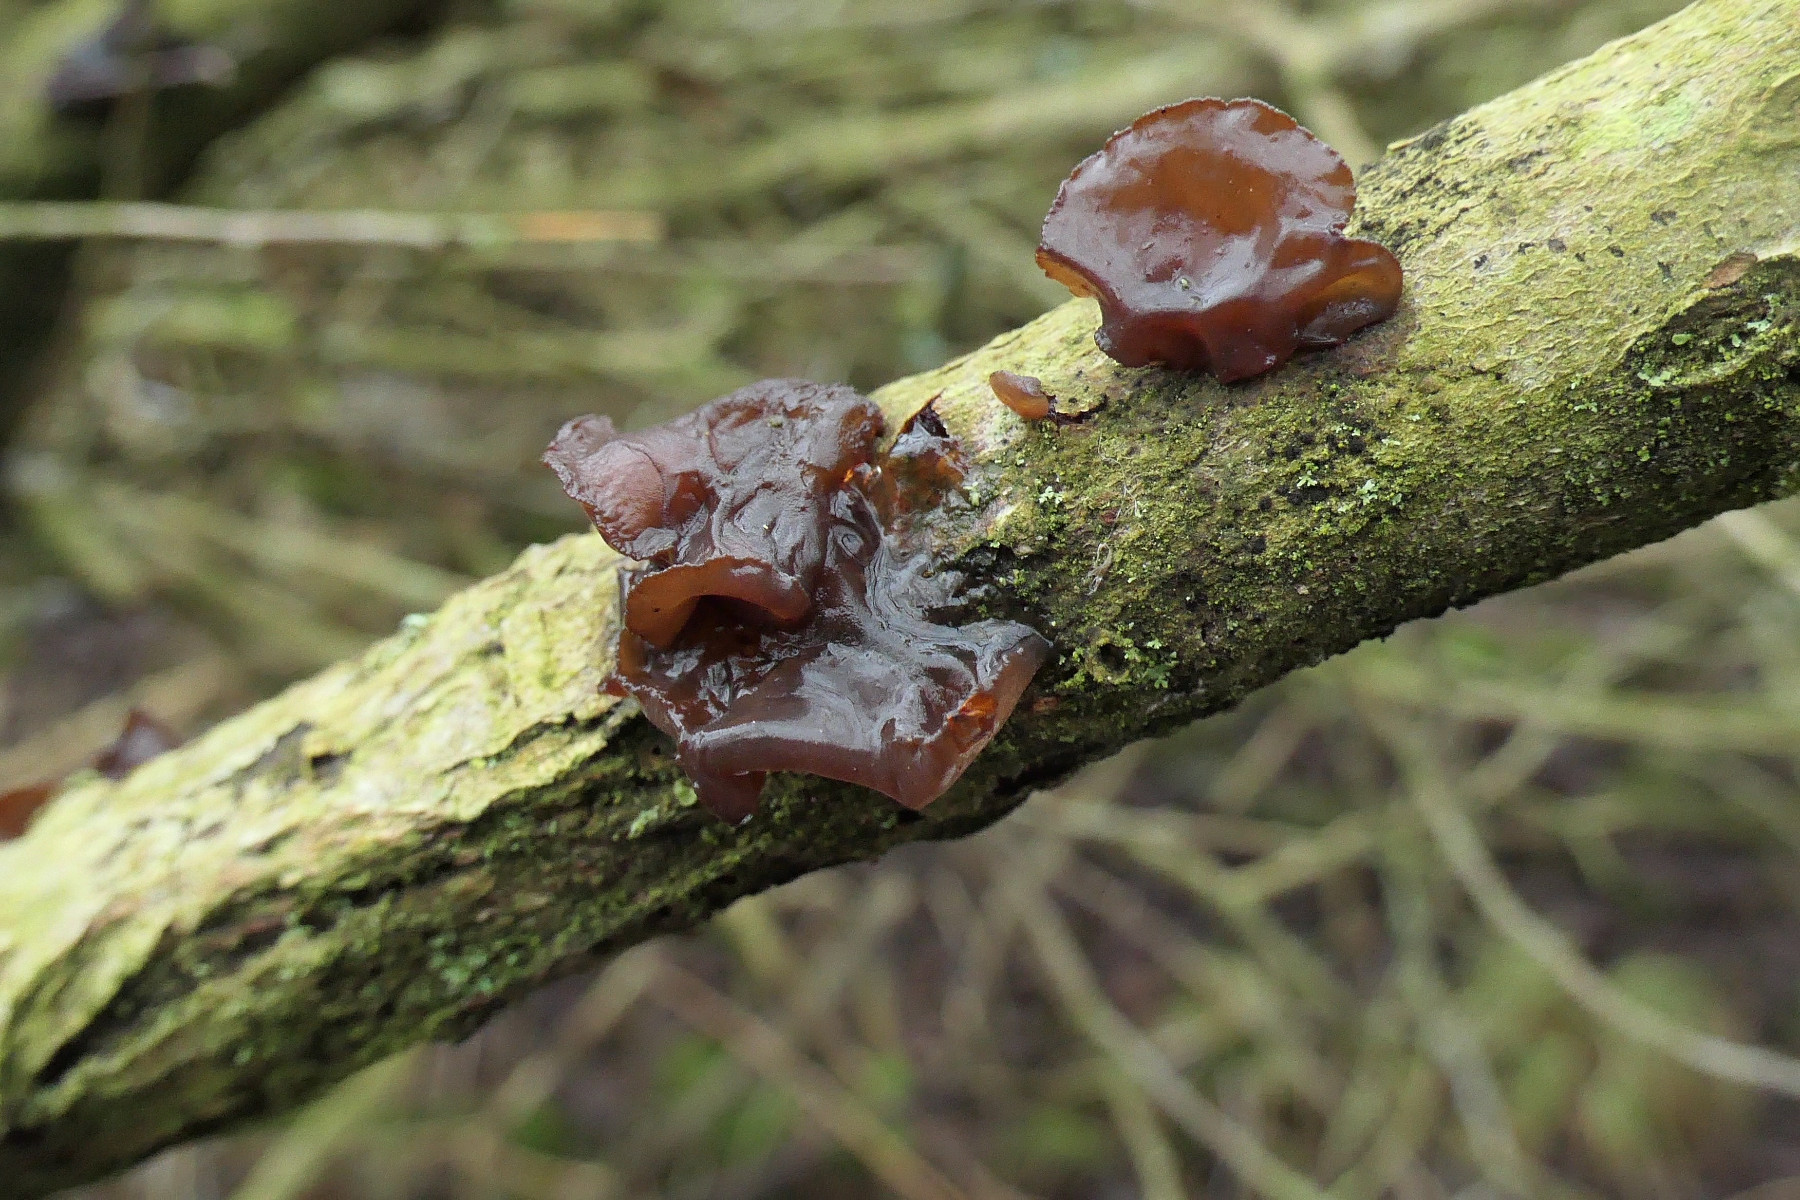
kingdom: Fungi
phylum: Basidiomycota
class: Agaricomycetes
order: Auriculariales
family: Auriculariaceae
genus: Exidia
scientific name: Exidia recisa
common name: pile-bævretop
